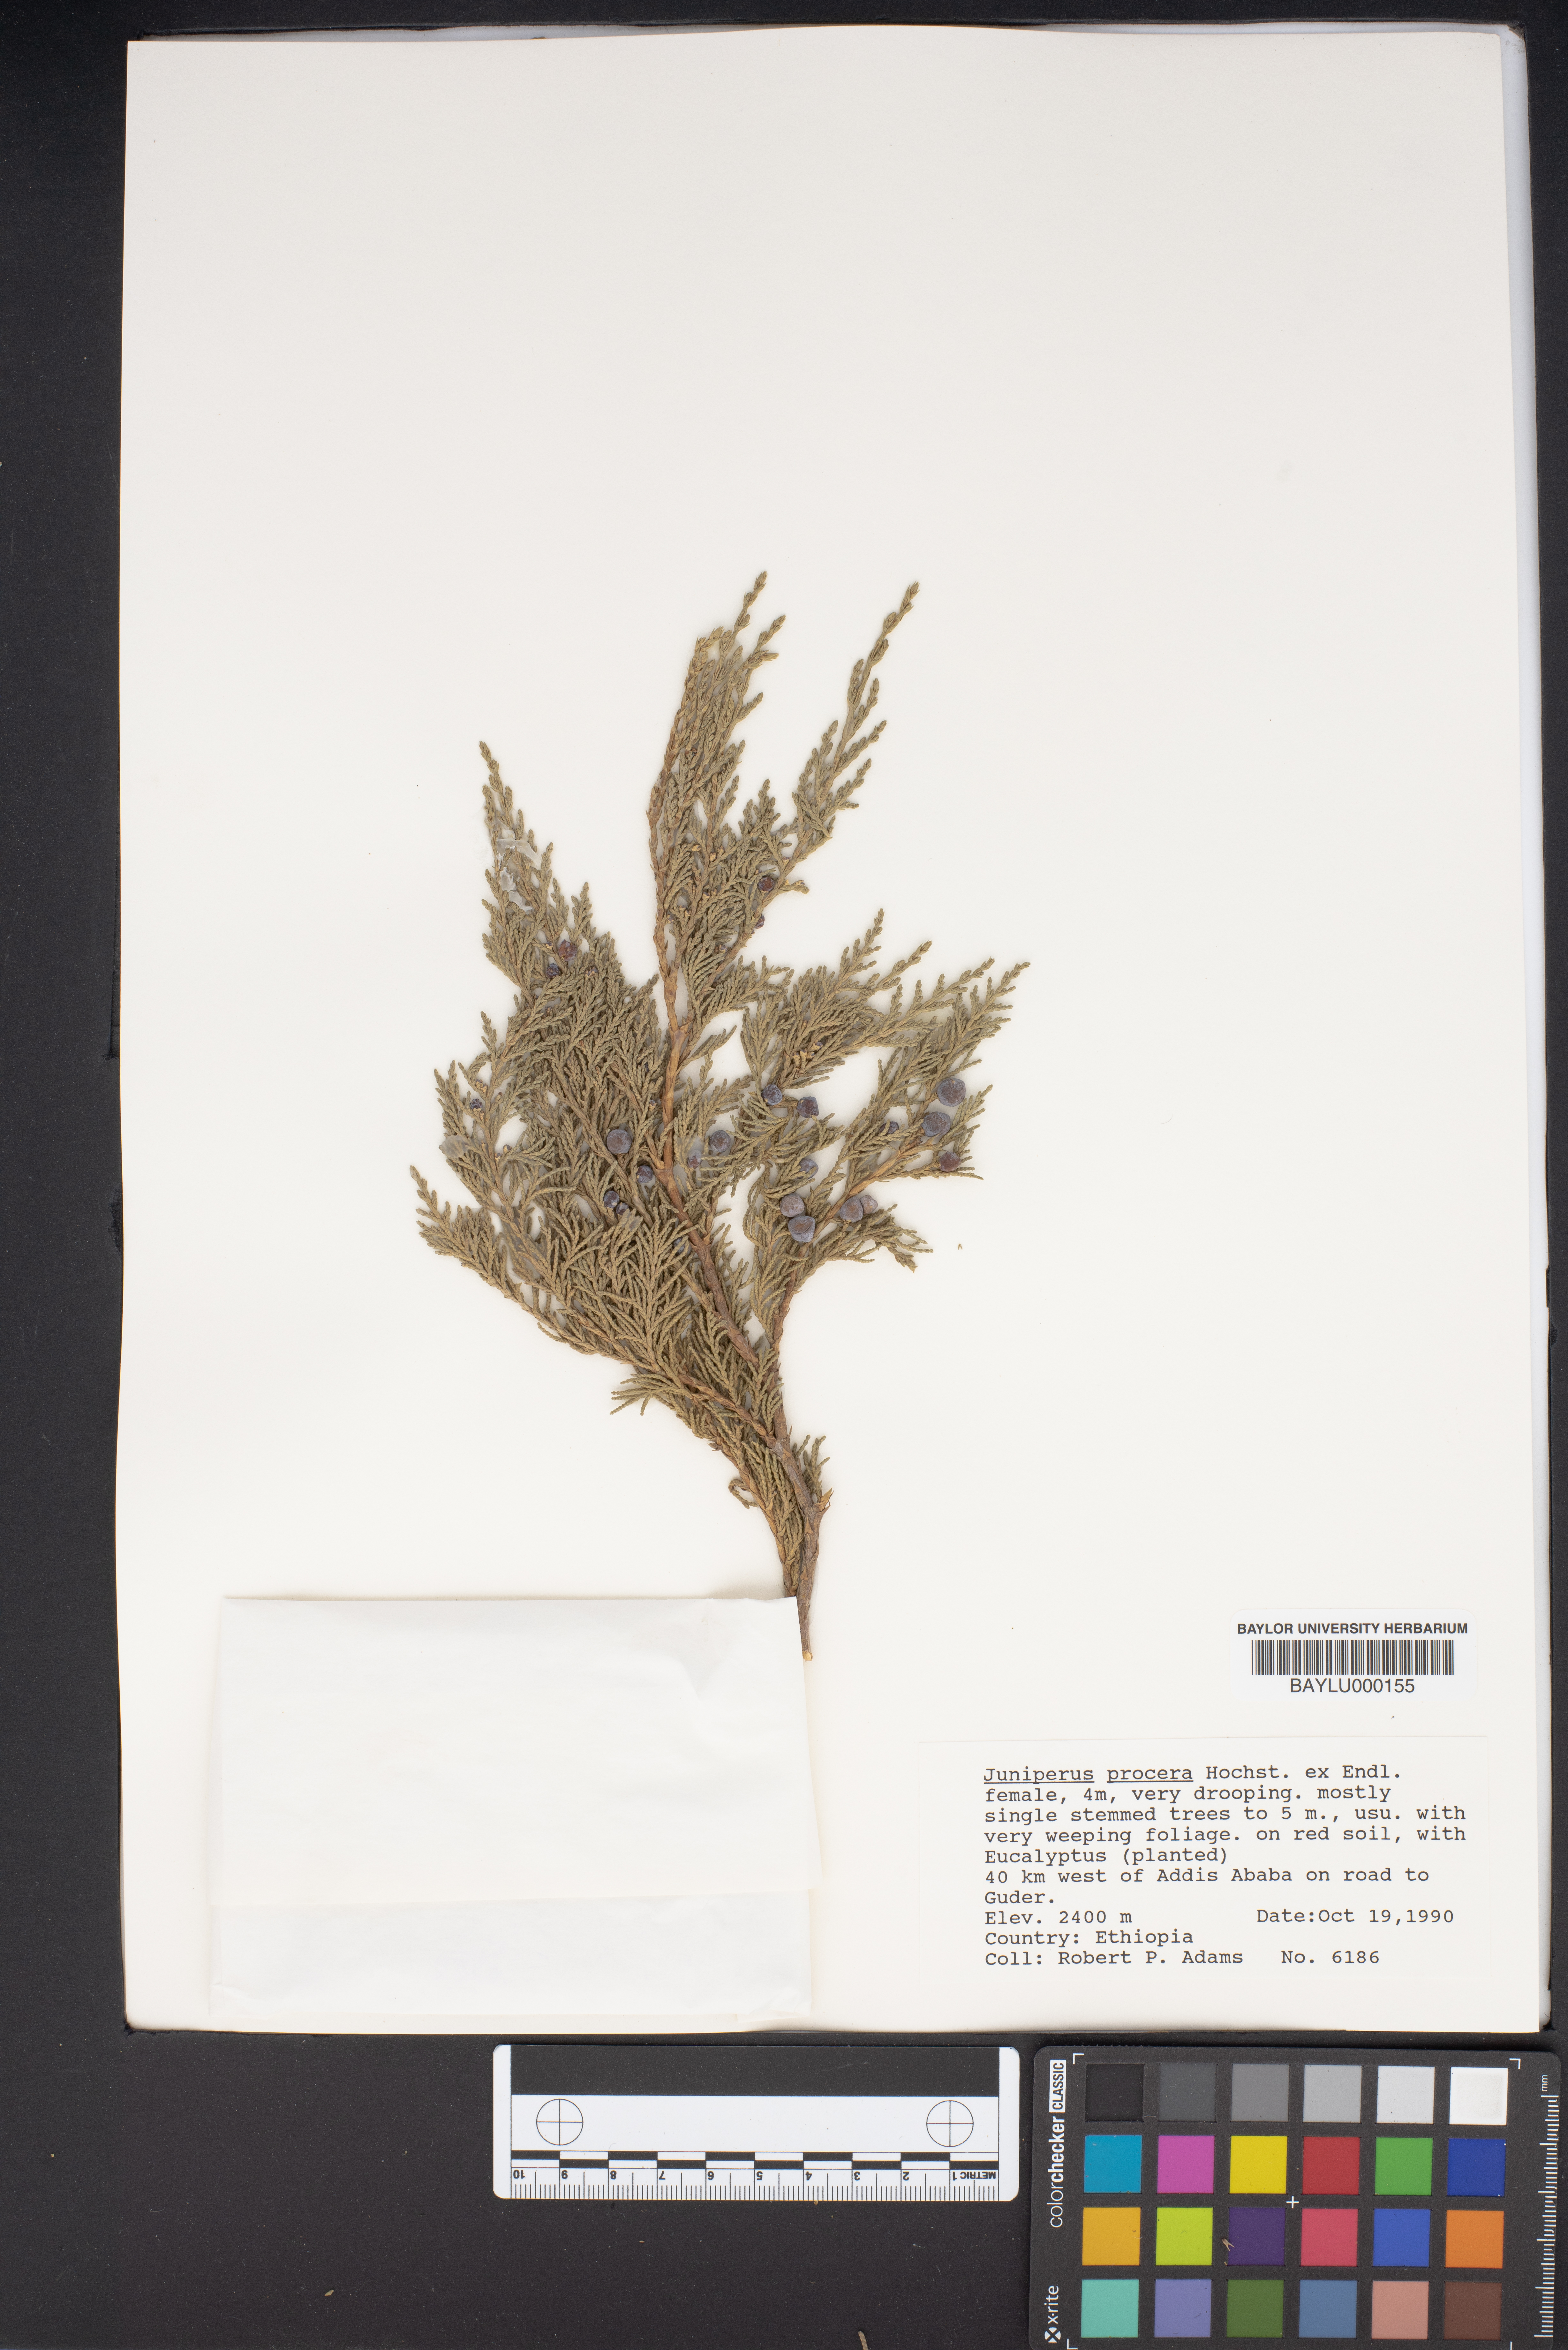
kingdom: Plantae
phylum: Tracheophyta
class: Pinopsida
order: Pinales
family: Cupressaceae
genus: Juniperus
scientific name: Juniperus procera
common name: African juniper
